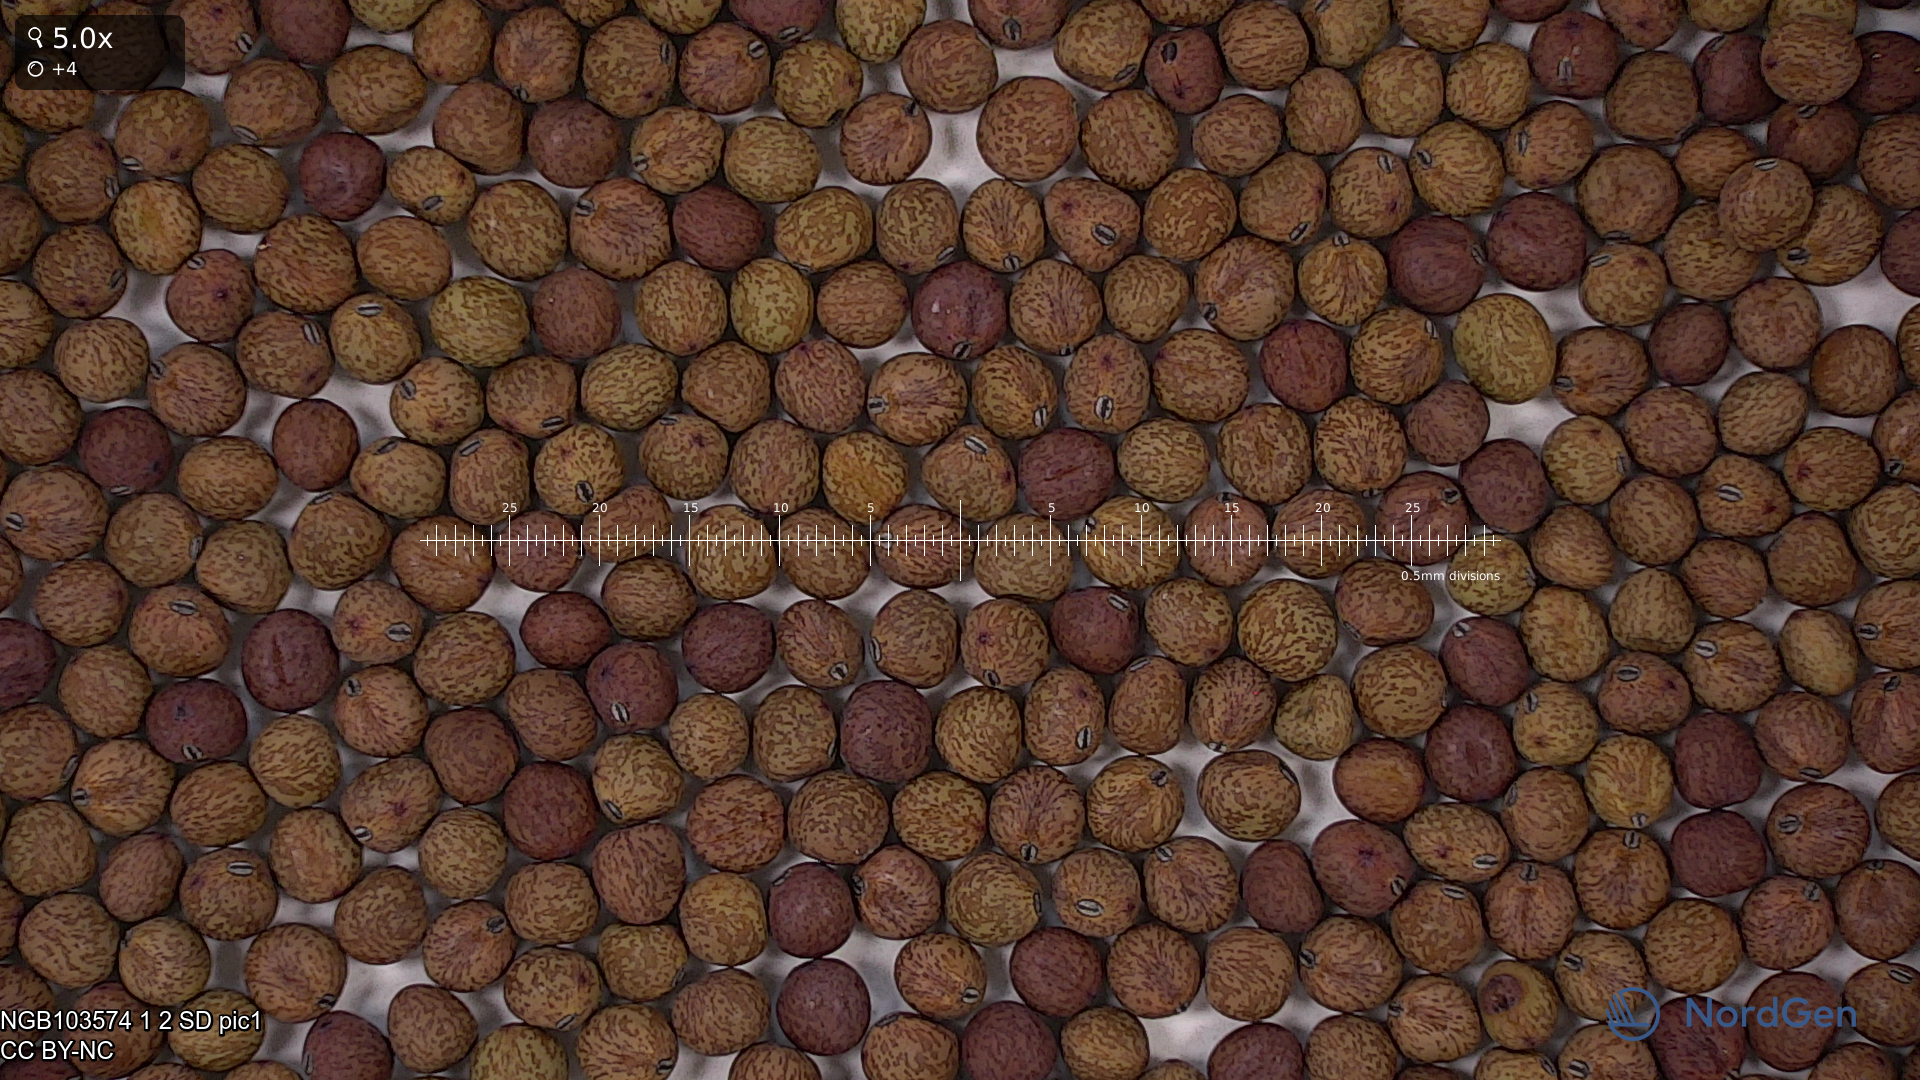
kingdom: Plantae
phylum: Tracheophyta
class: Magnoliopsida
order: Fabales
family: Fabaceae
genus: Lathyrus
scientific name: Lathyrus oleraceus
